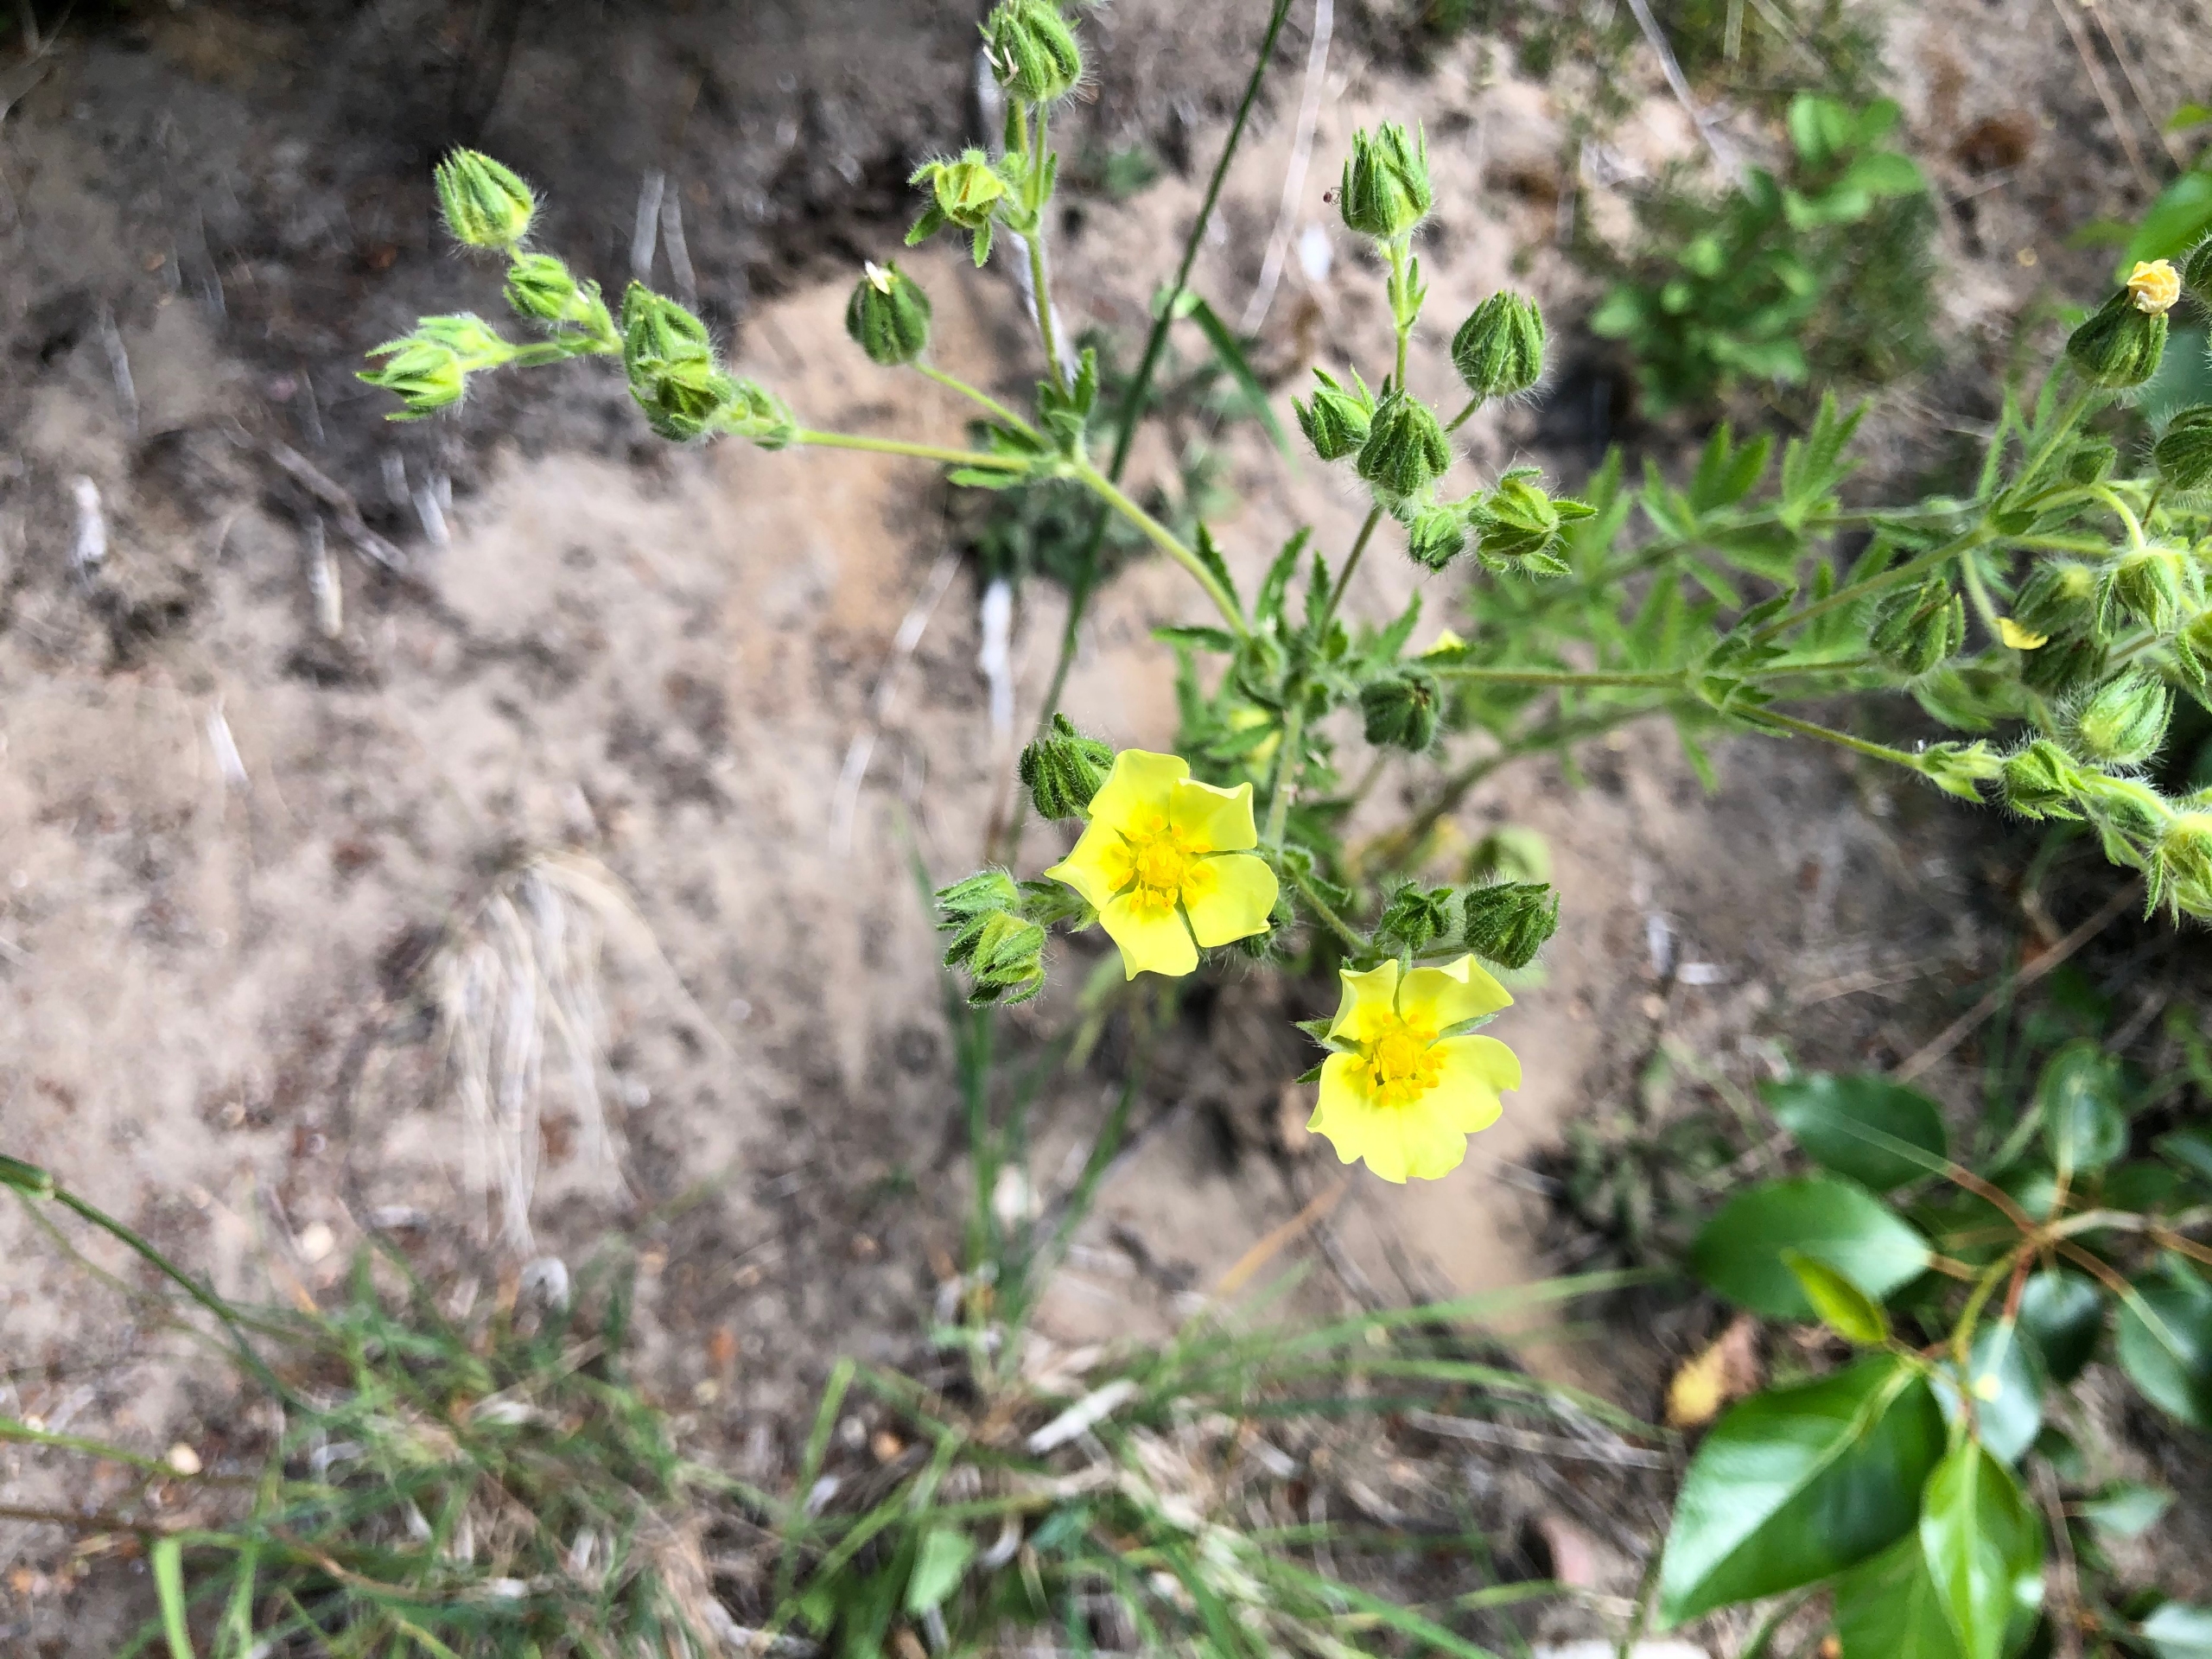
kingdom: Plantae
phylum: Tracheophyta
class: Magnoliopsida
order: Rosales
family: Rosaceae
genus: Potentilla
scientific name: Potentilla recta
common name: Rank potentil
